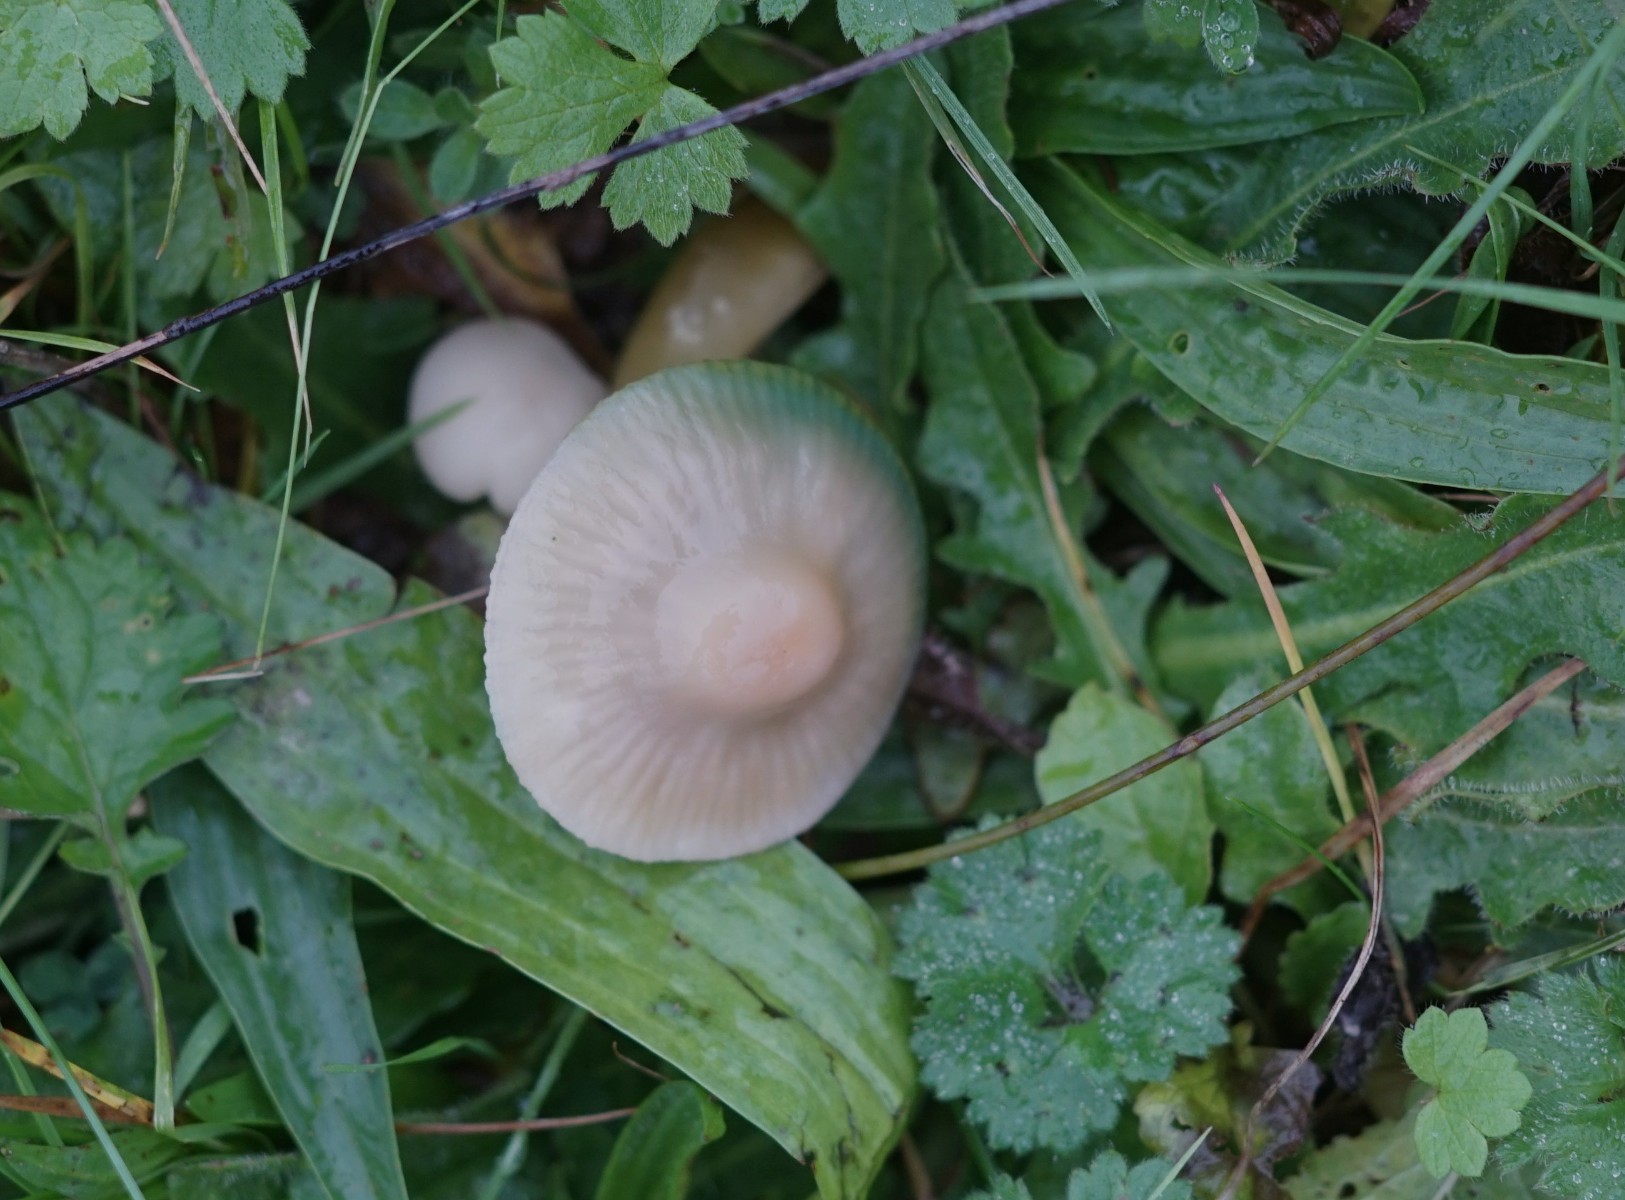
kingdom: Fungi
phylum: Basidiomycota
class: Agaricomycetes
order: Agaricales
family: Hygrophoraceae
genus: Gliophorus
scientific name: Gliophorus psittacinus
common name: papegøje-vokshat
